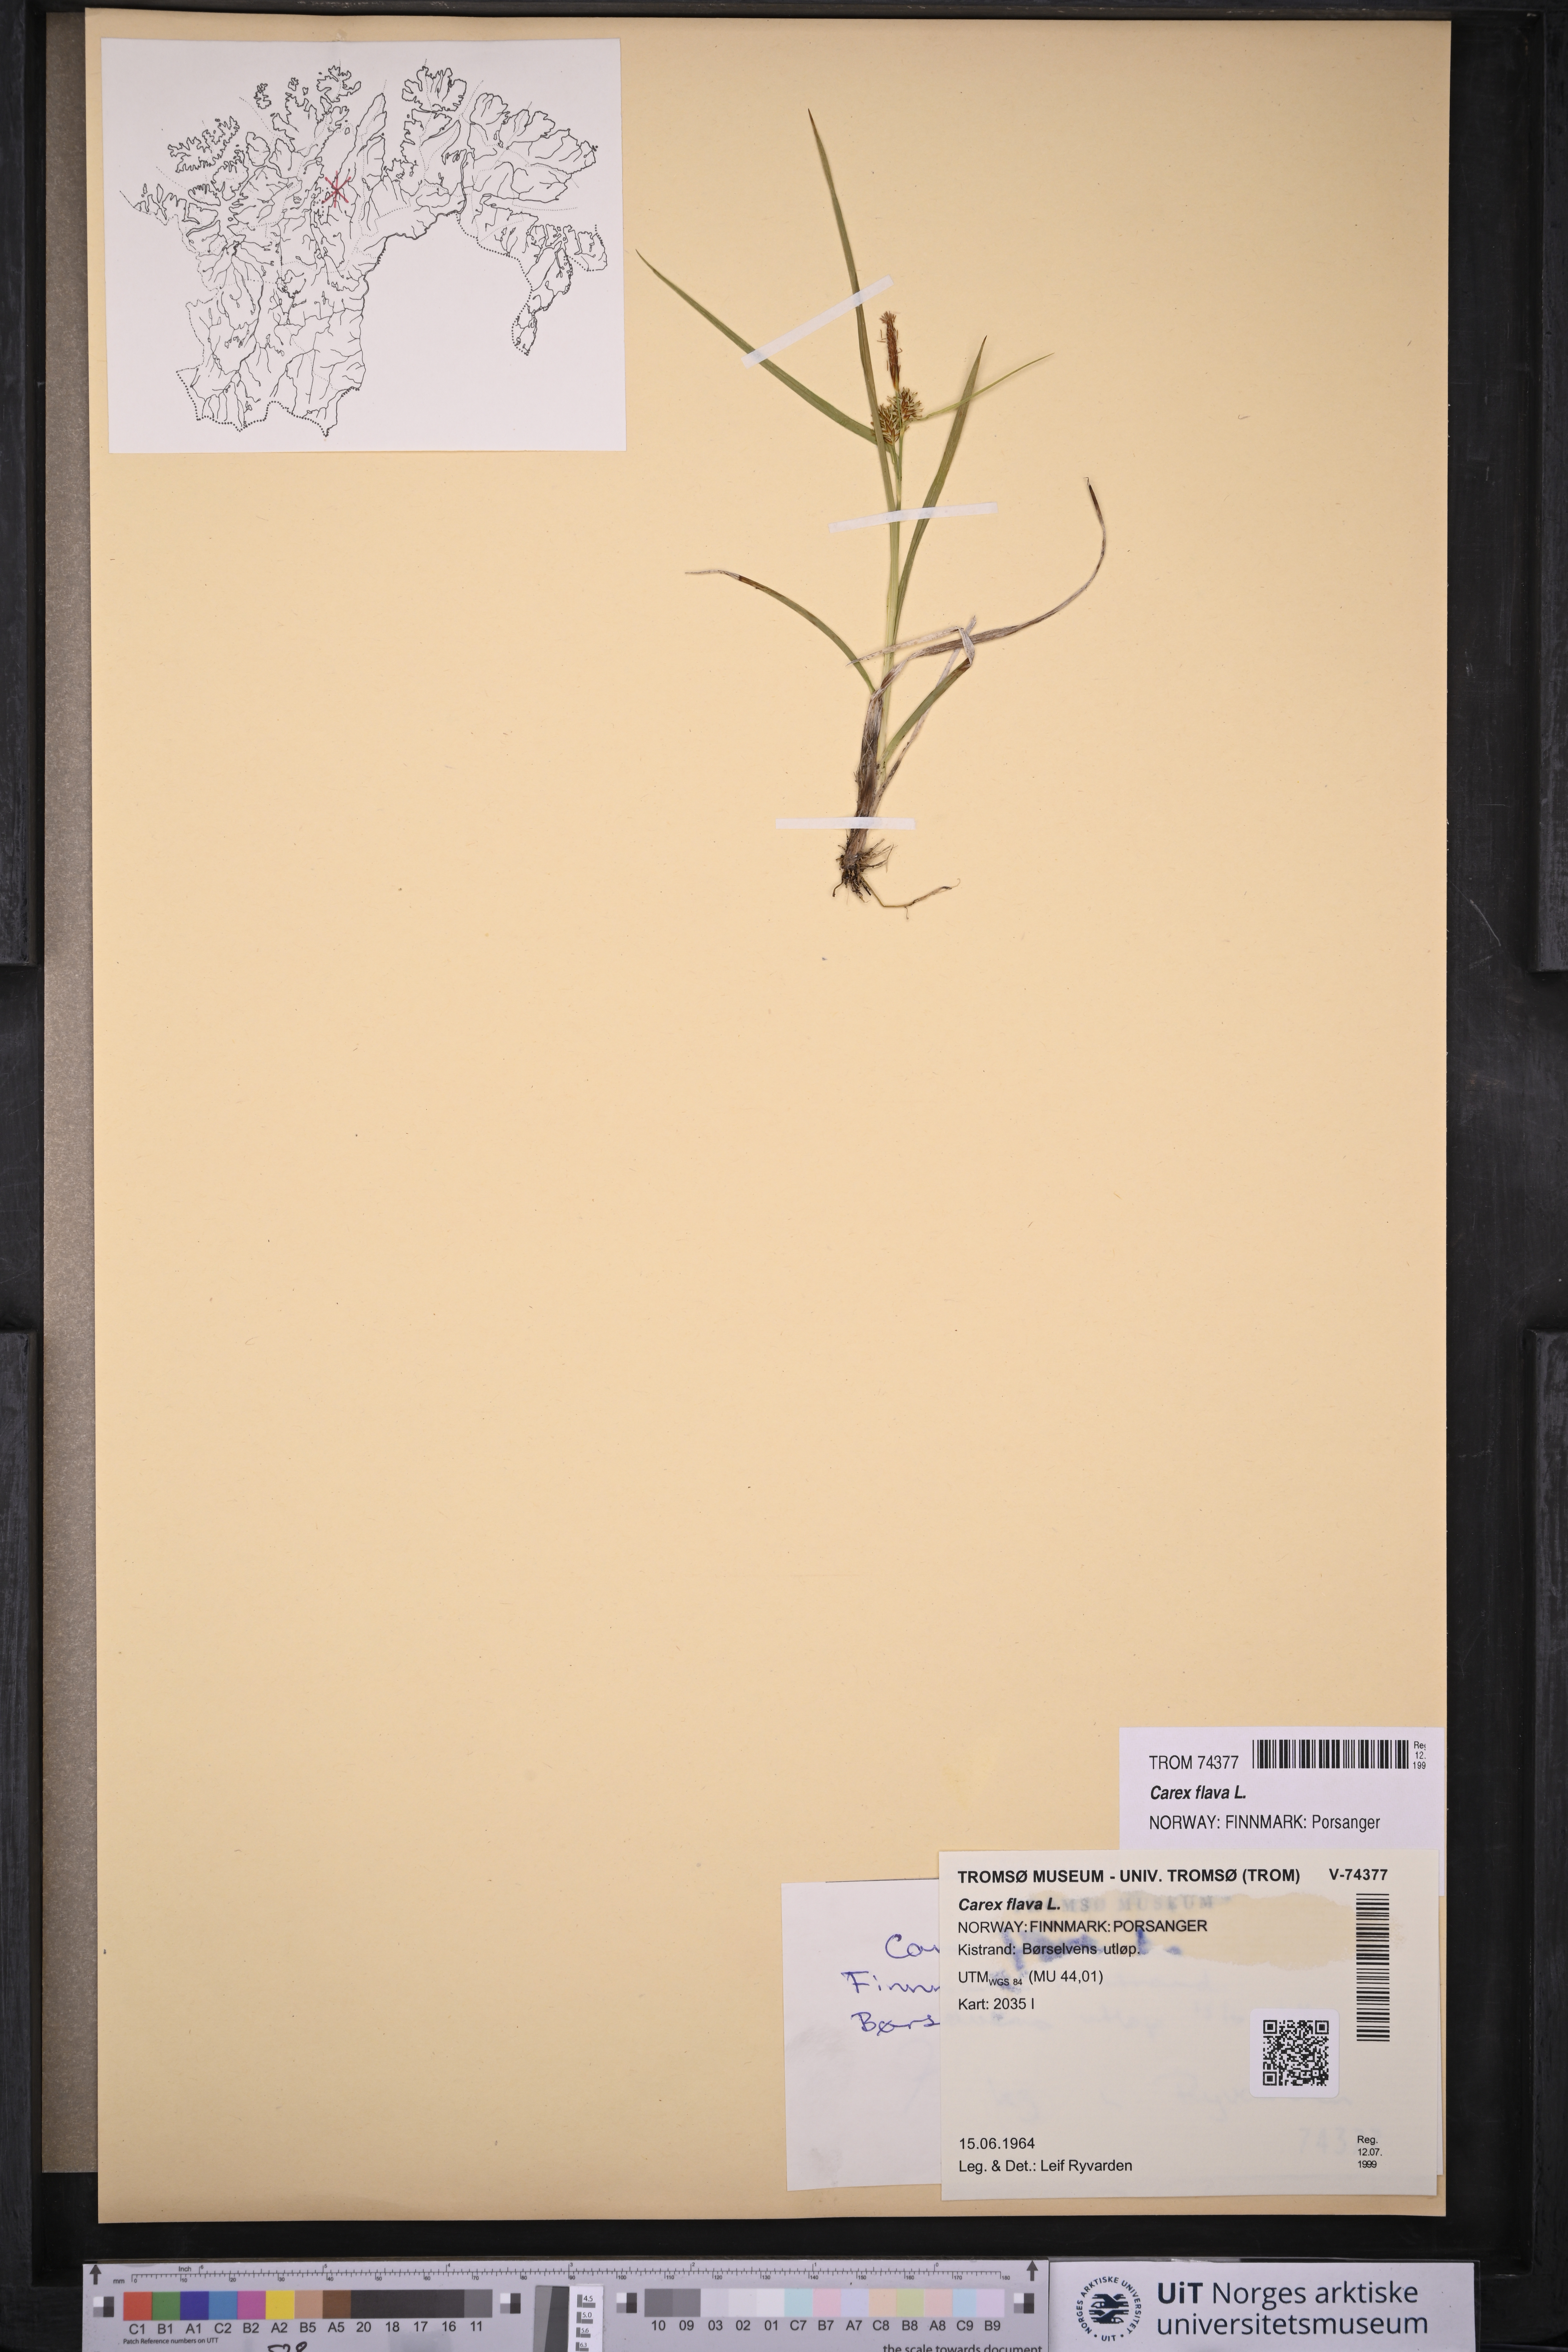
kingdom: Plantae
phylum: Tracheophyta
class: Liliopsida
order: Poales
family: Cyperaceae
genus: Carex
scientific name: Carex flava
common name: Large yellow-sedge
